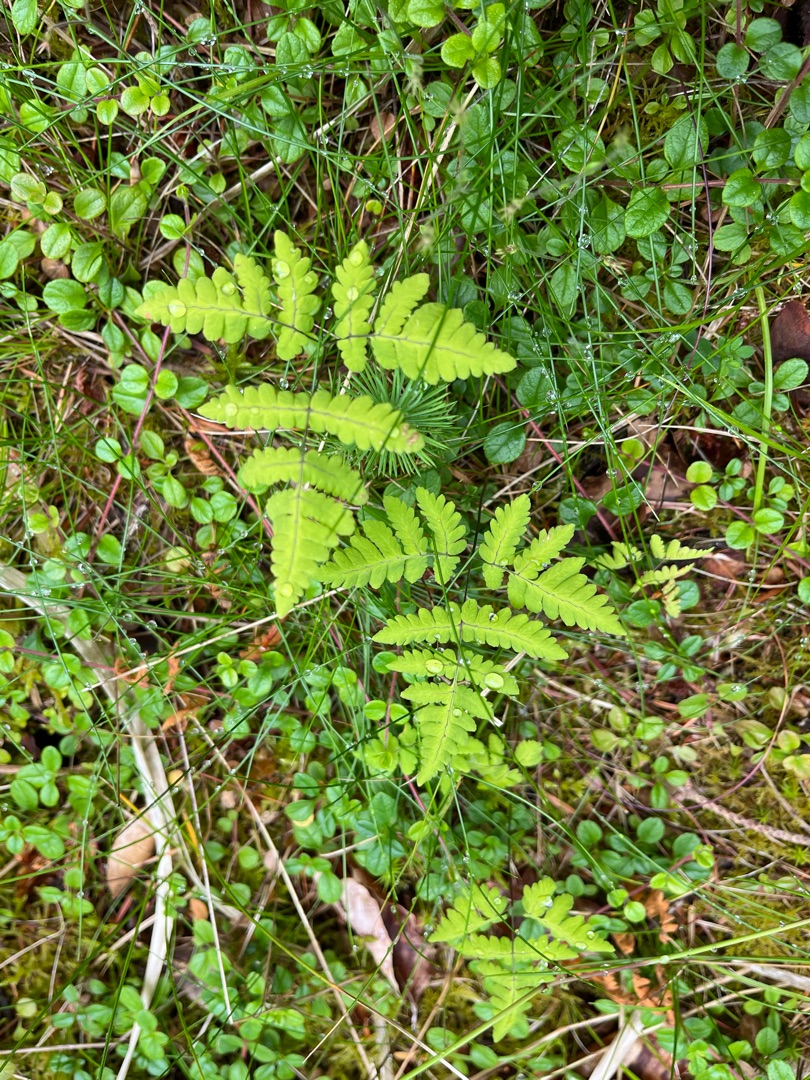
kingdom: Plantae
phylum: Tracheophyta
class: Polypodiopsida
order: Polypodiales
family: Cystopteridaceae
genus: Gymnocarpium
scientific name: Gymnocarpium dryopteris
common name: Tredelt egebregne
